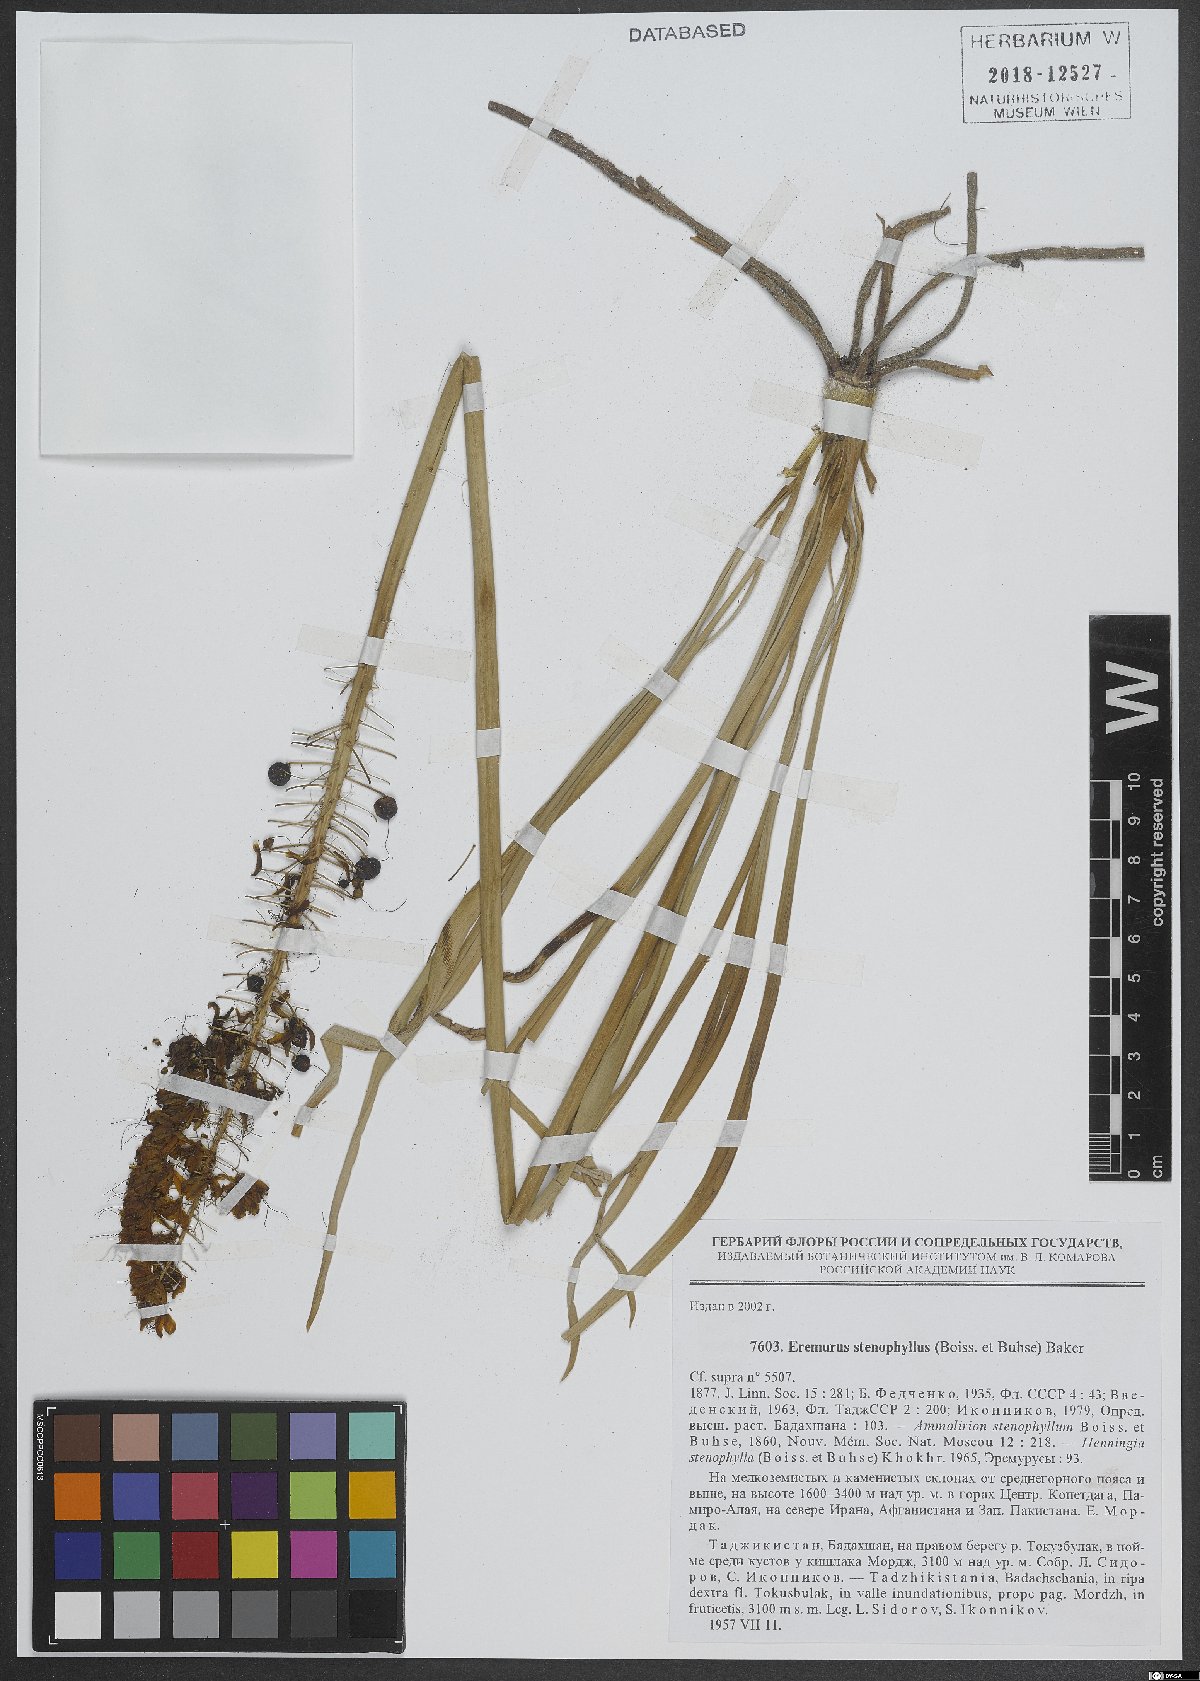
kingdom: Plantae
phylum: Tracheophyta
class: Liliopsida
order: Asparagales
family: Asphodelaceae
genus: Eremurus
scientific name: Eremurus stenophyllus
